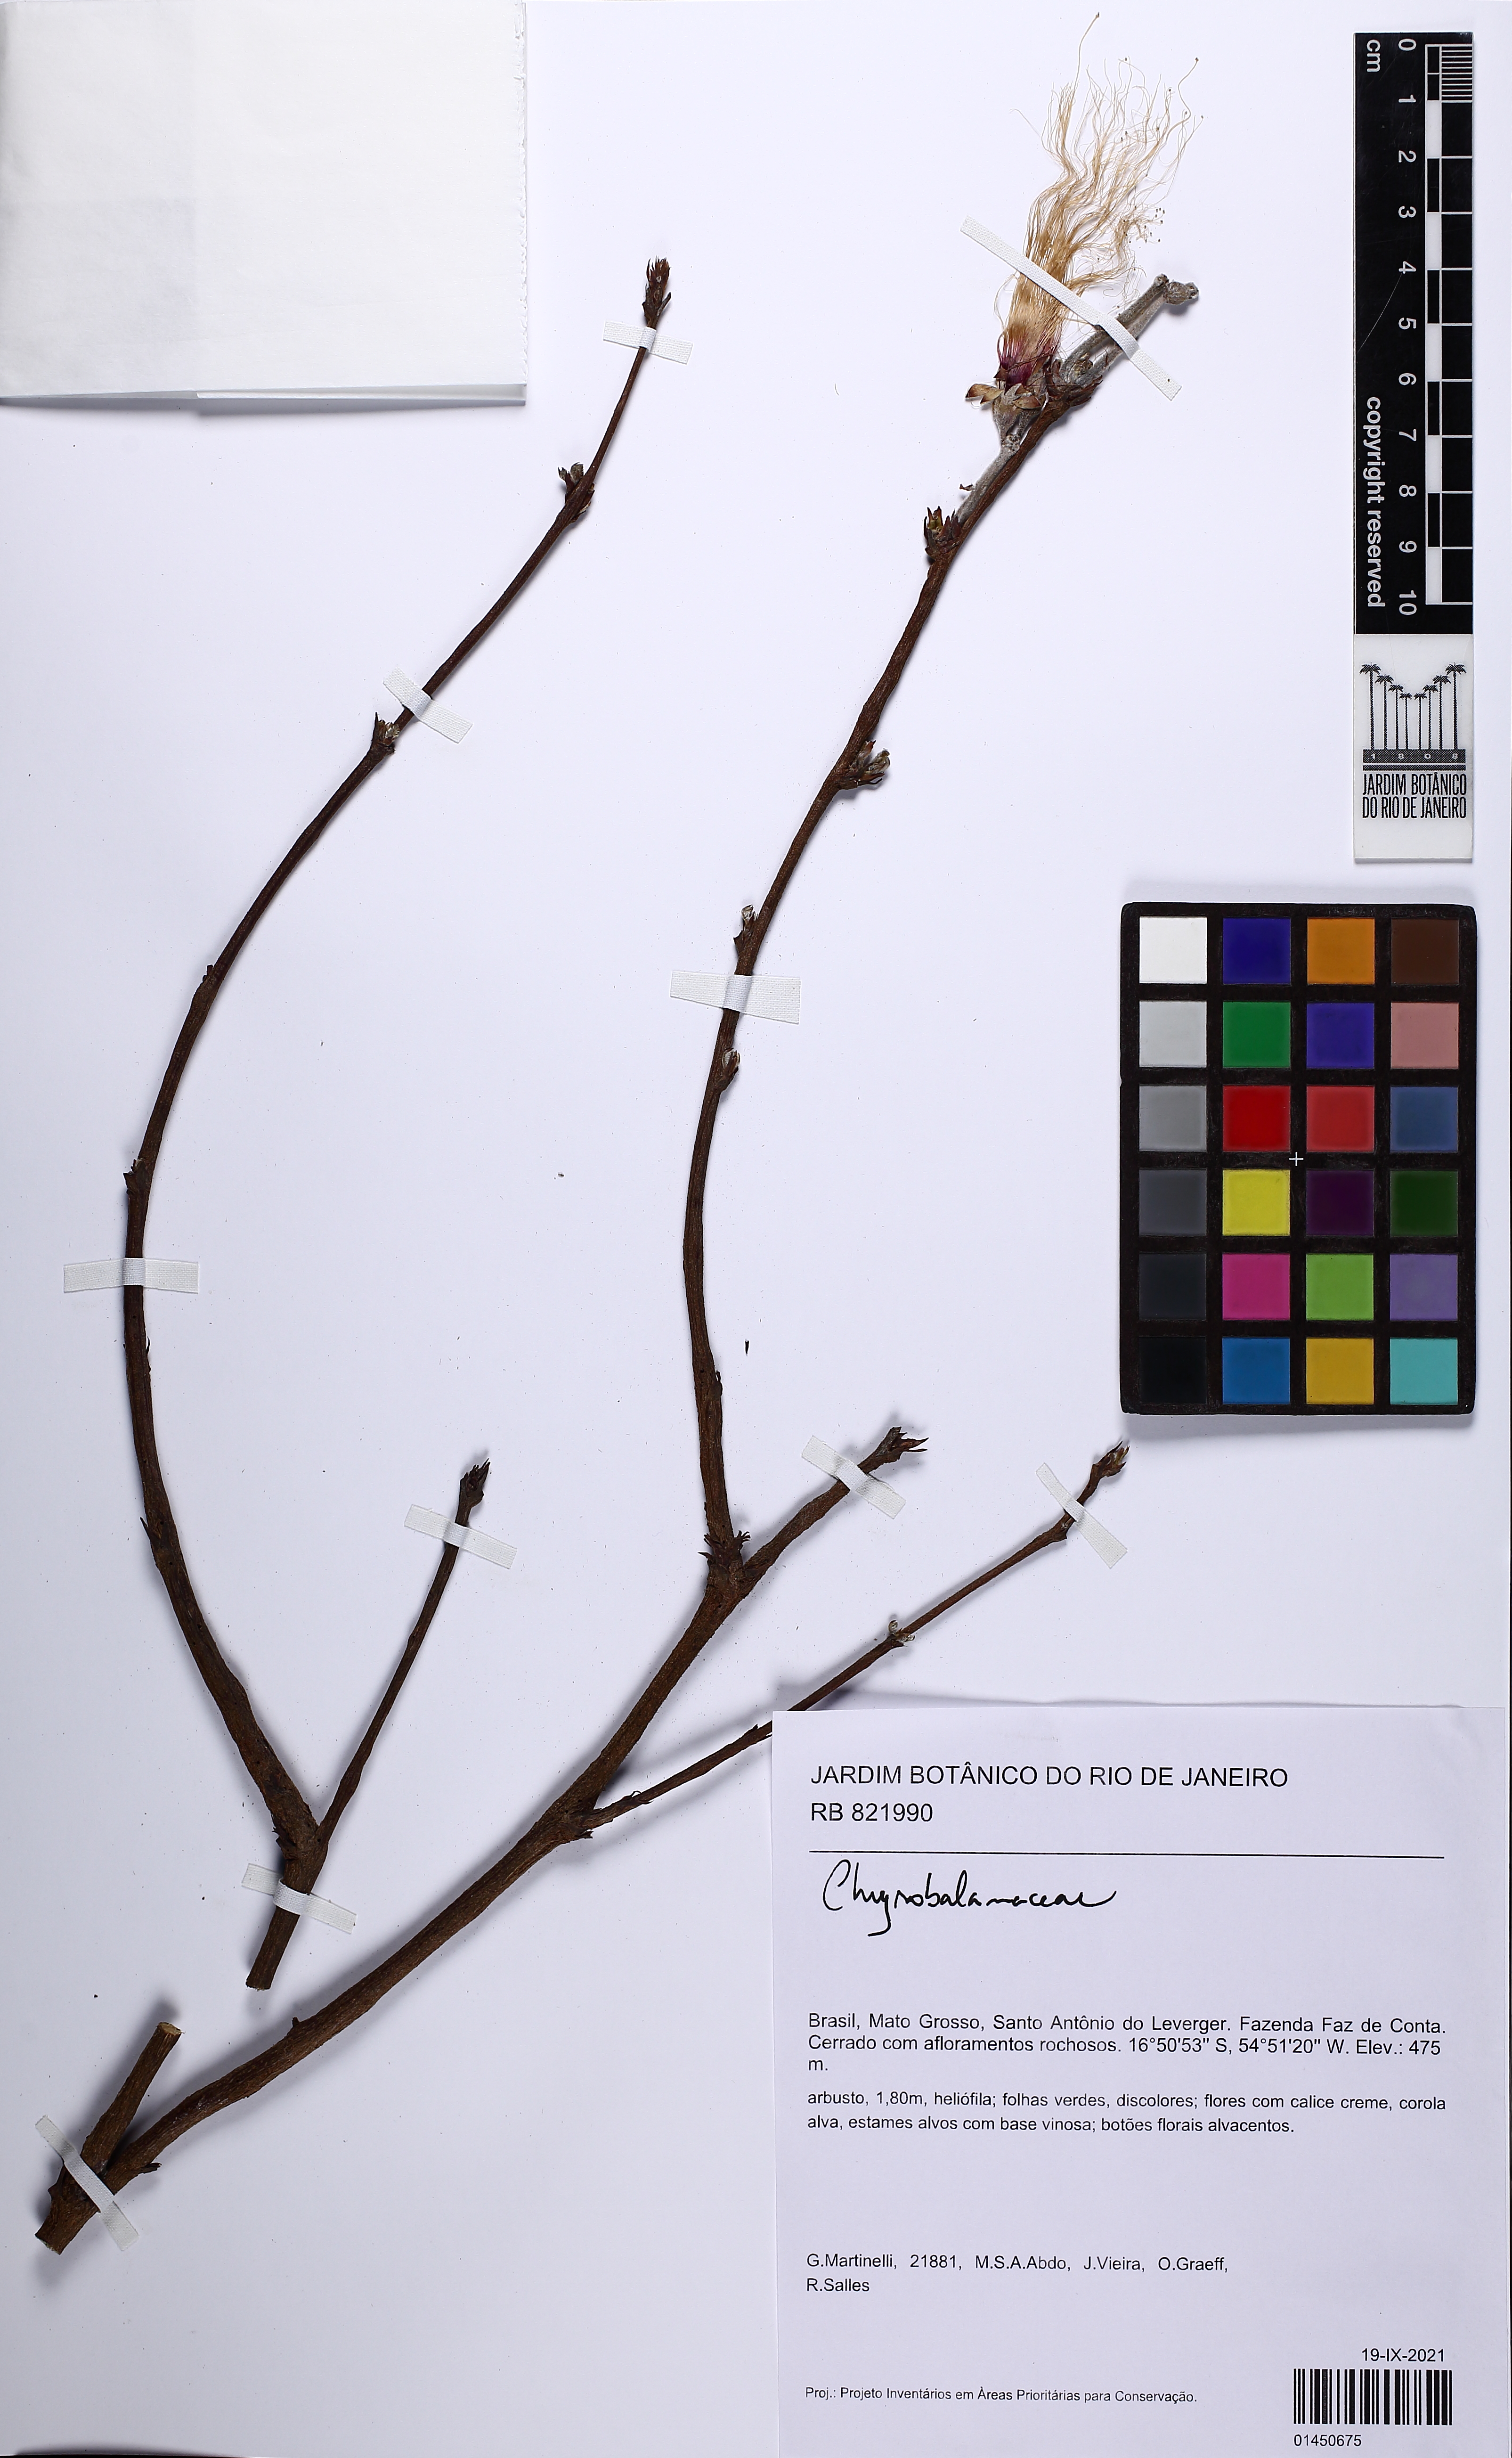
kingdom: Plantae
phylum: Tracheophyta
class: Magnoliopsida
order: Malpighiales
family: Chrysobalanaceae
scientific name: Chrysobalanaceae
